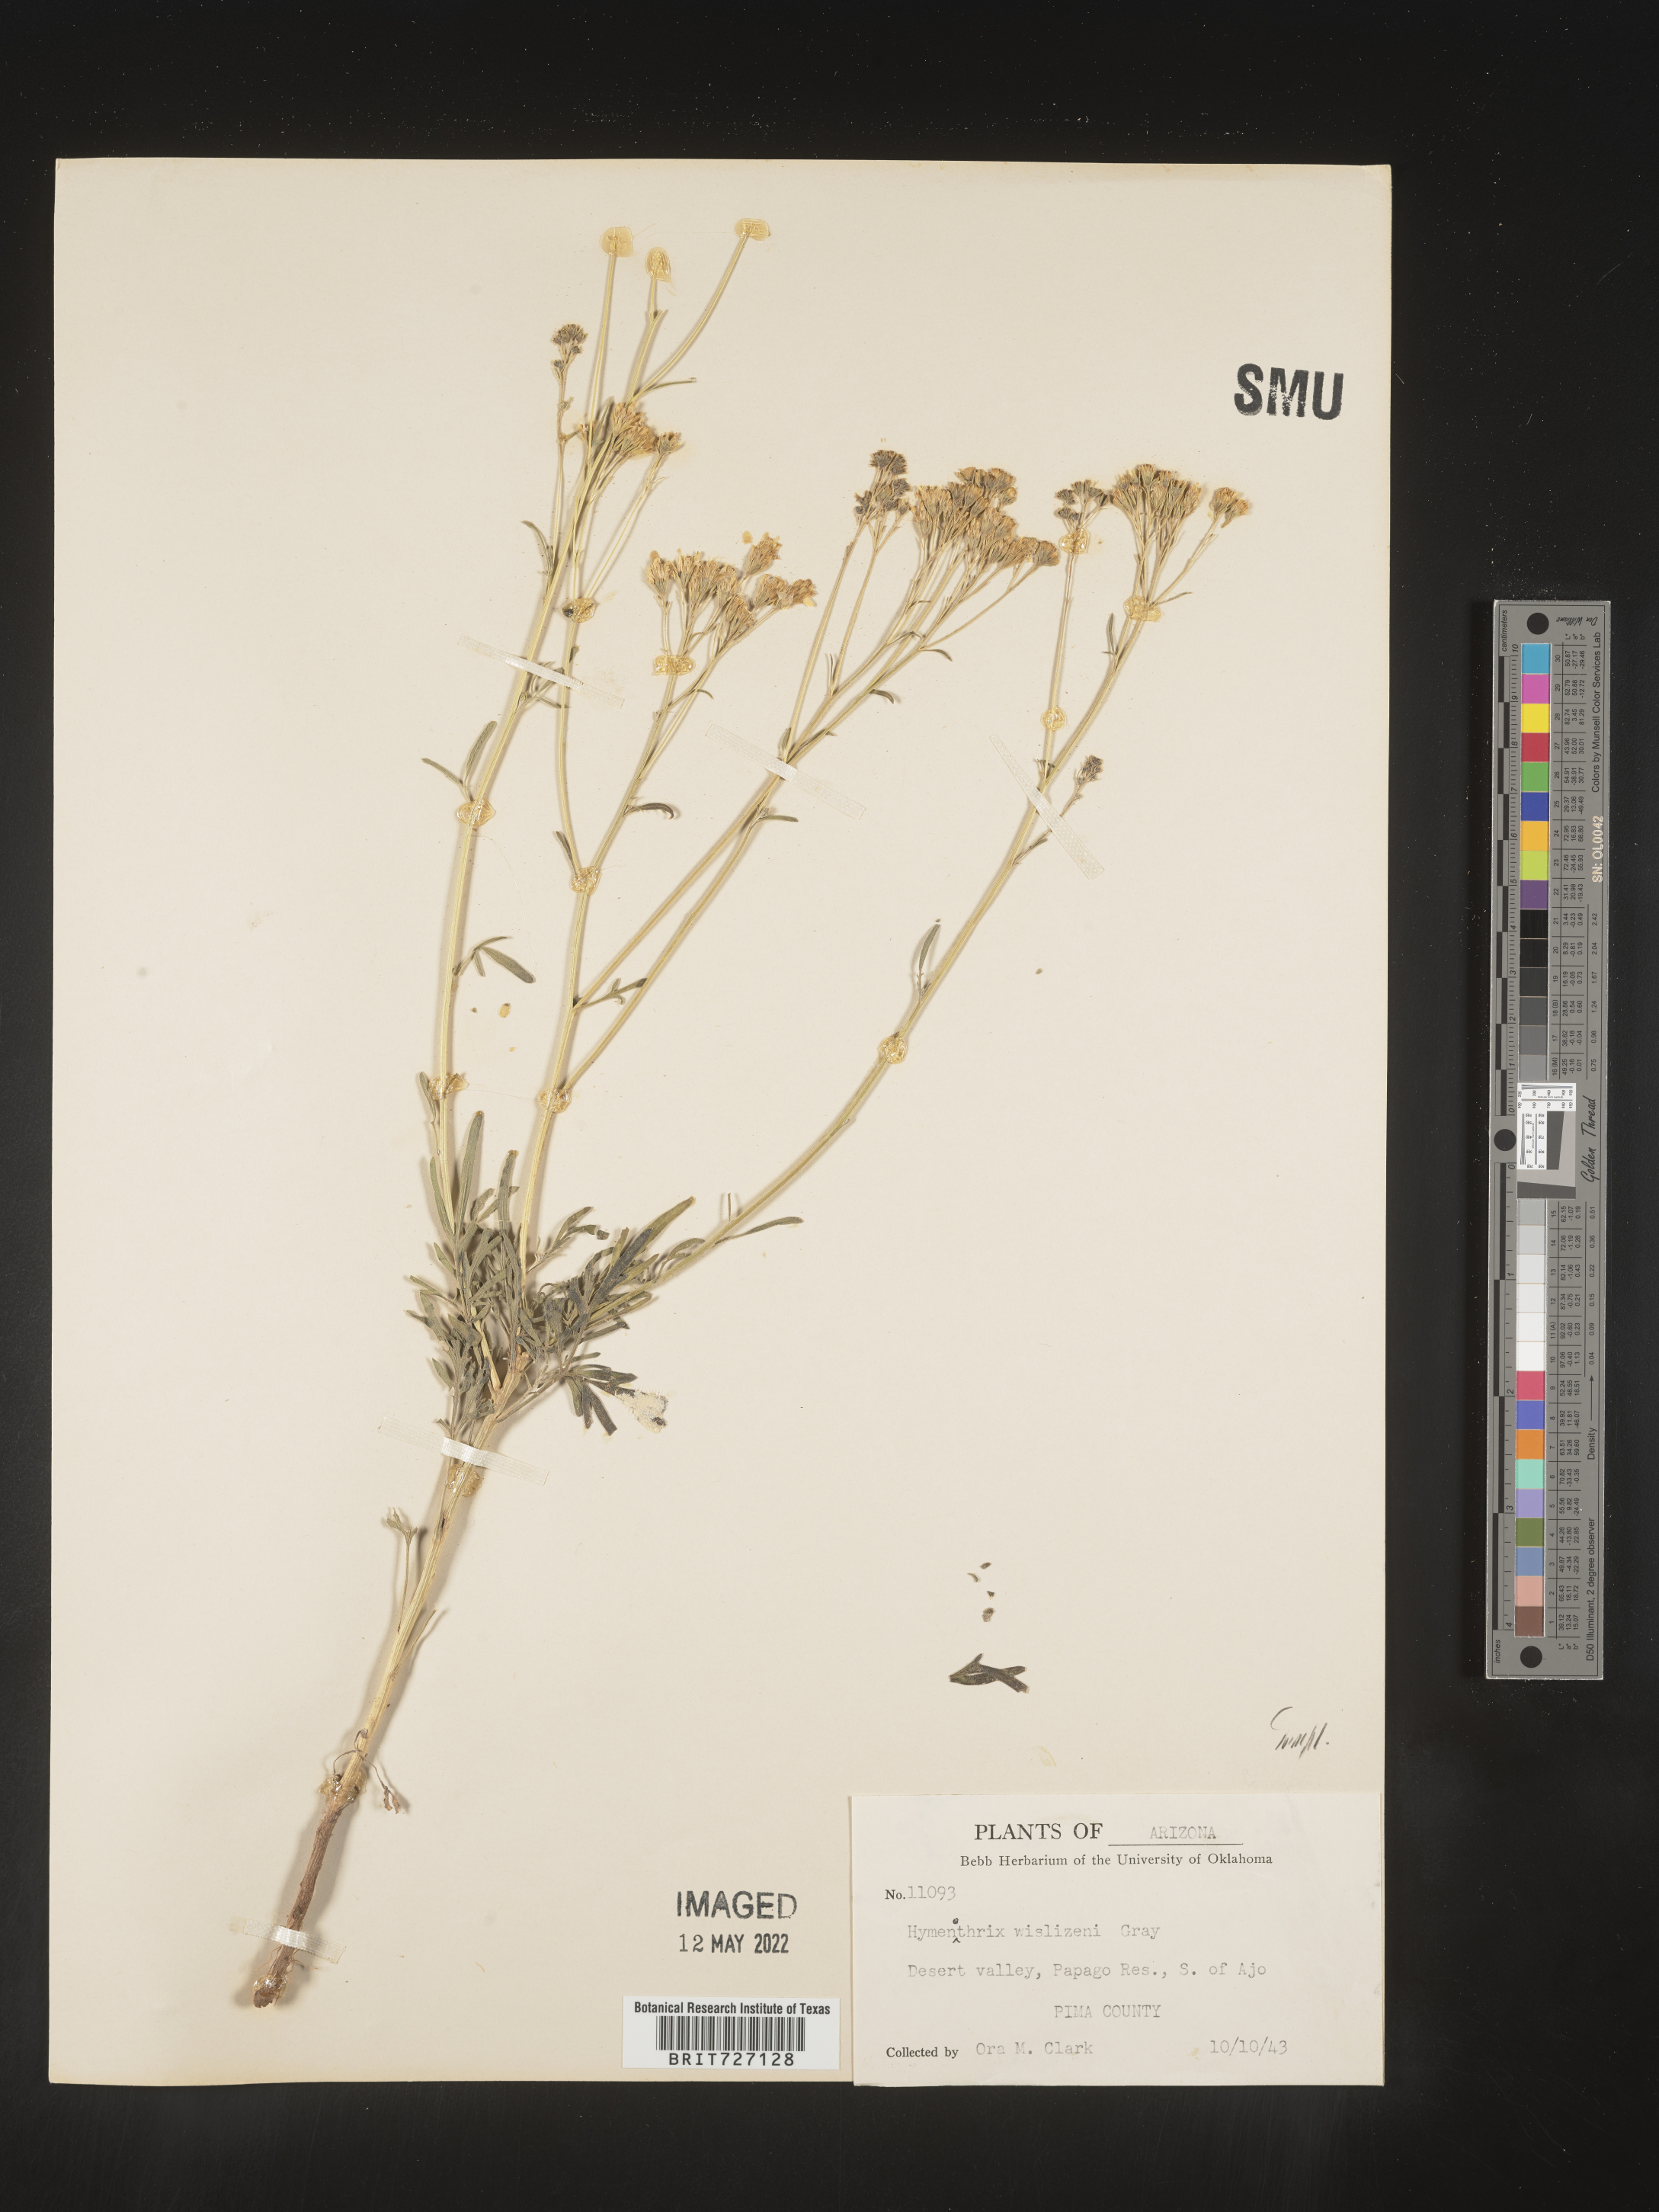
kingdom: Plantae
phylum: Tracheophyta
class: Magnoliopsida
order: Asterales
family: Asteraceae
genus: Hymenothrix
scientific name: Hymenothrix wislizeni
